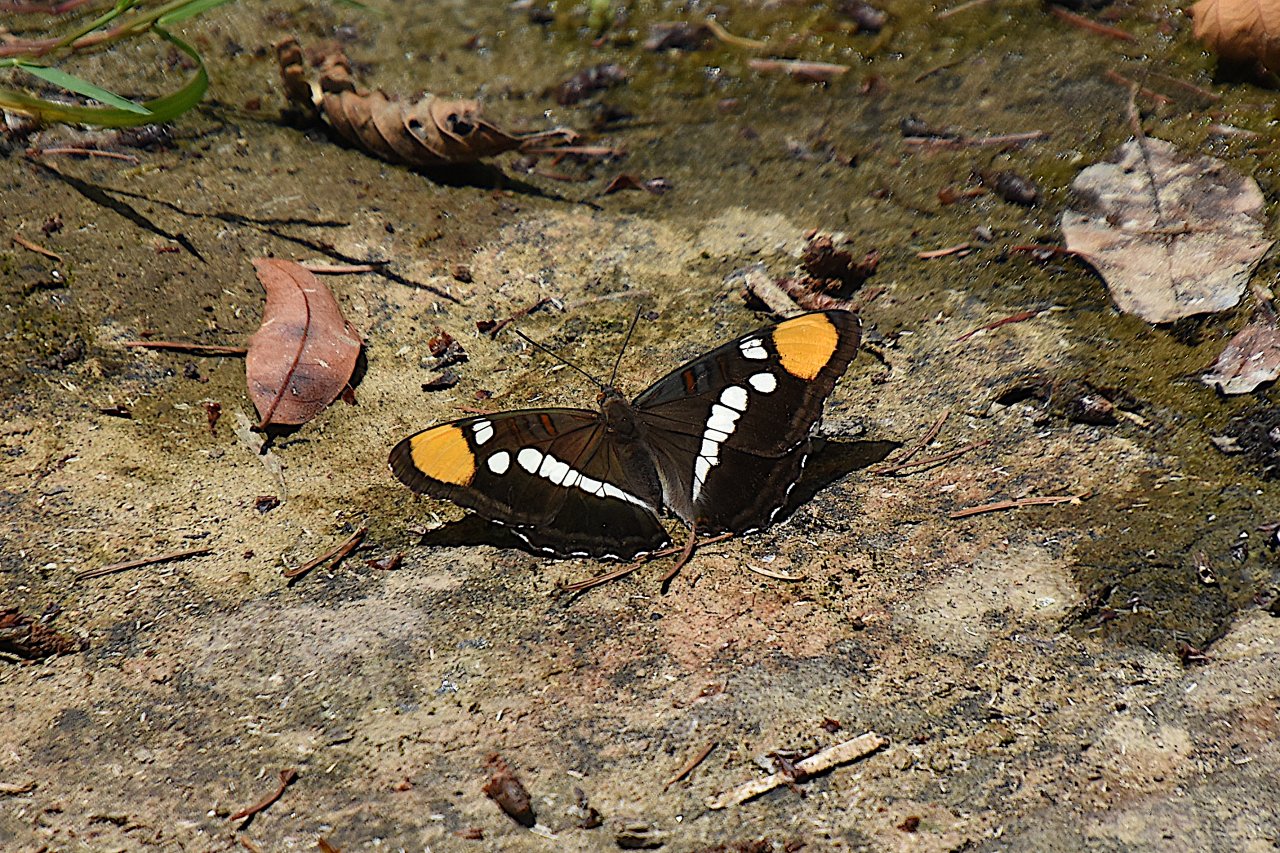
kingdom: Animalia
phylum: Arthropoda
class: Insecta
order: Lepidoptera
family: Nymphalidae
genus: Limenitis
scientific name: Limenitis bredowii
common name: California Sister
